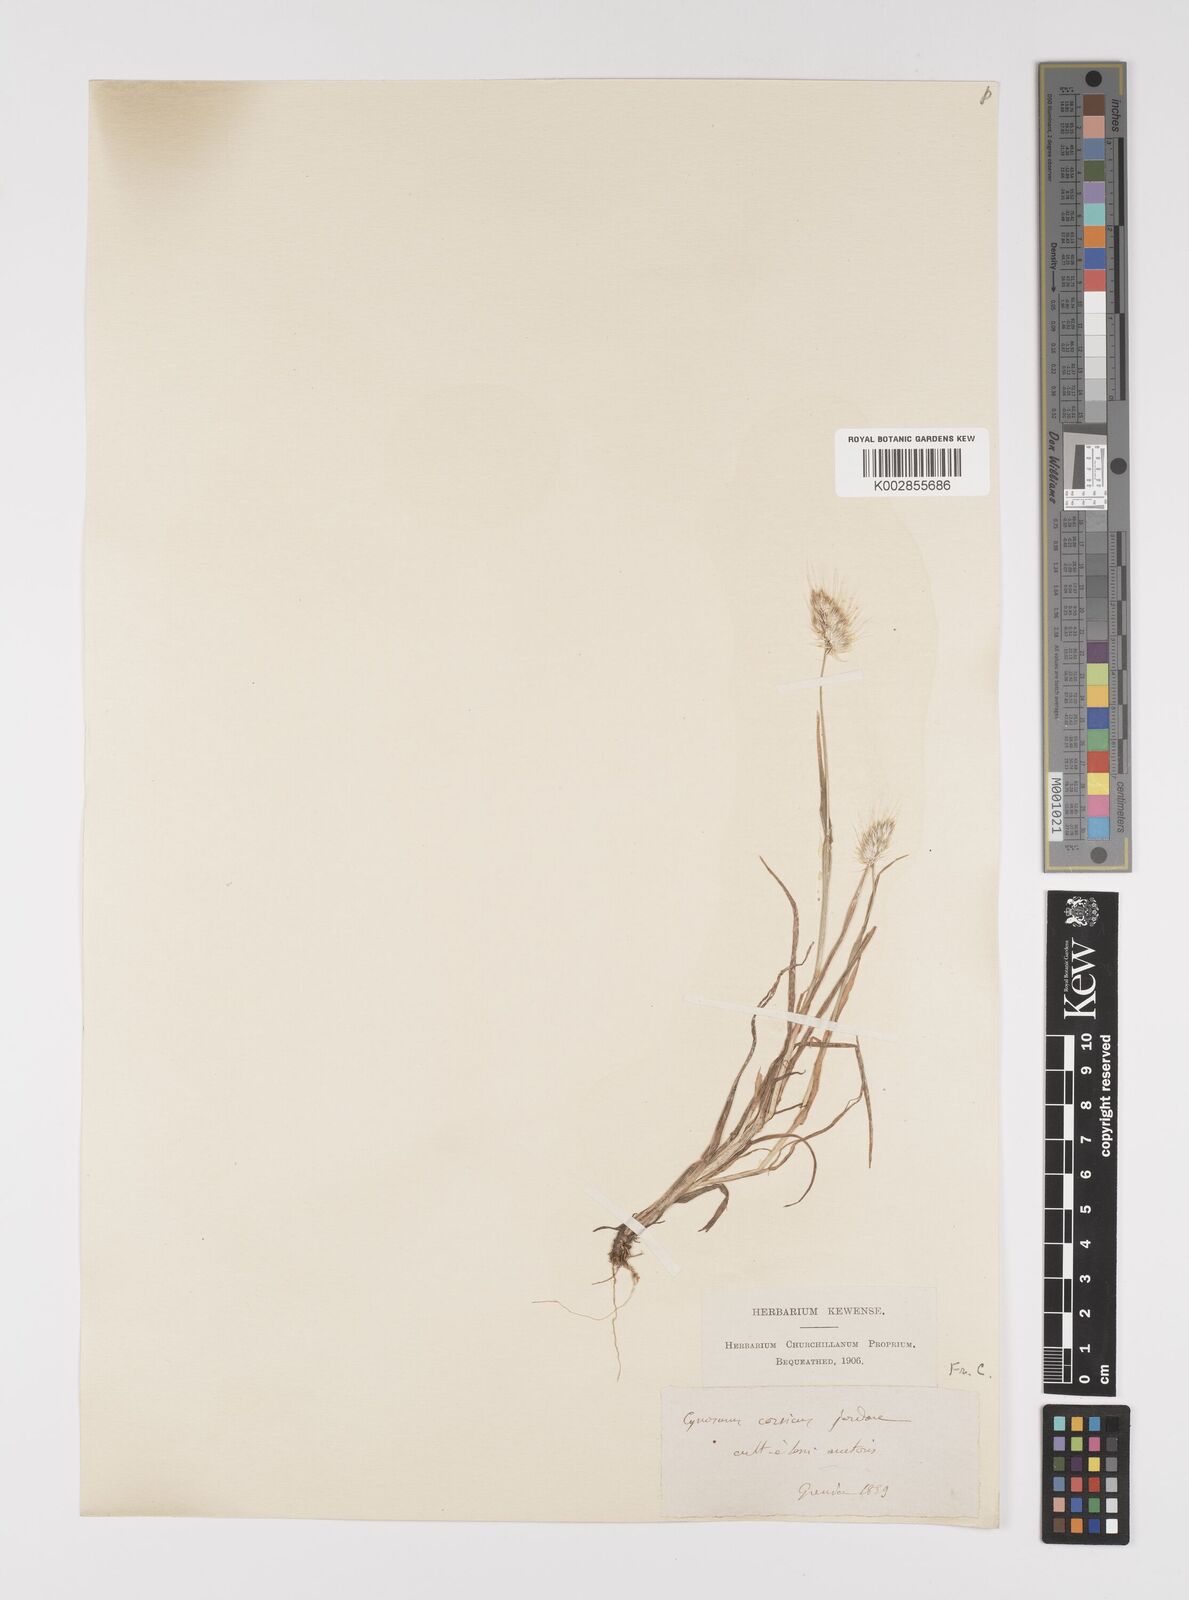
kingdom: Plantae
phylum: Tracheophyta
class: Liliopsida
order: Poales
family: Poaceae
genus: Cynosurus
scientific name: Cynosurus echinatus
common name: Rough dog's-tail
